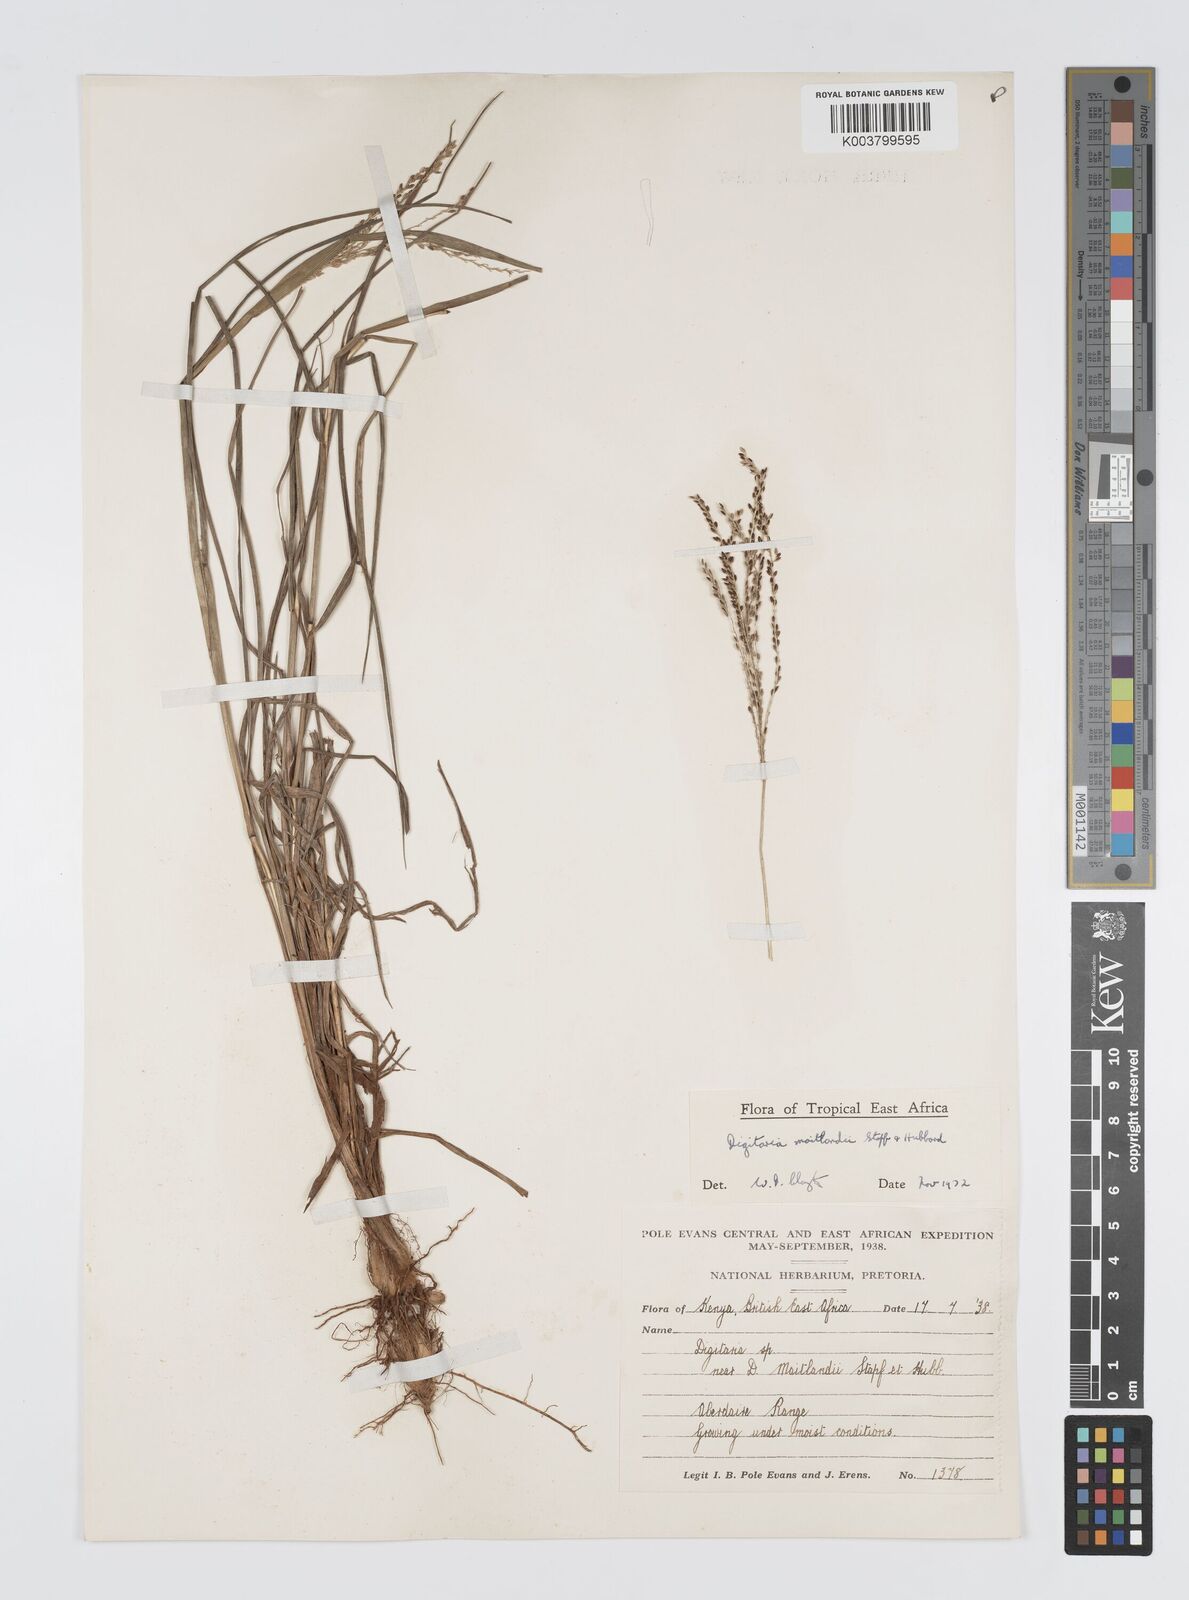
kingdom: Plantae
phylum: Tracheophyta
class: Liliopsida
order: Poales
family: Poaceae
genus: Digitaria
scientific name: Digitaria maitlandii
